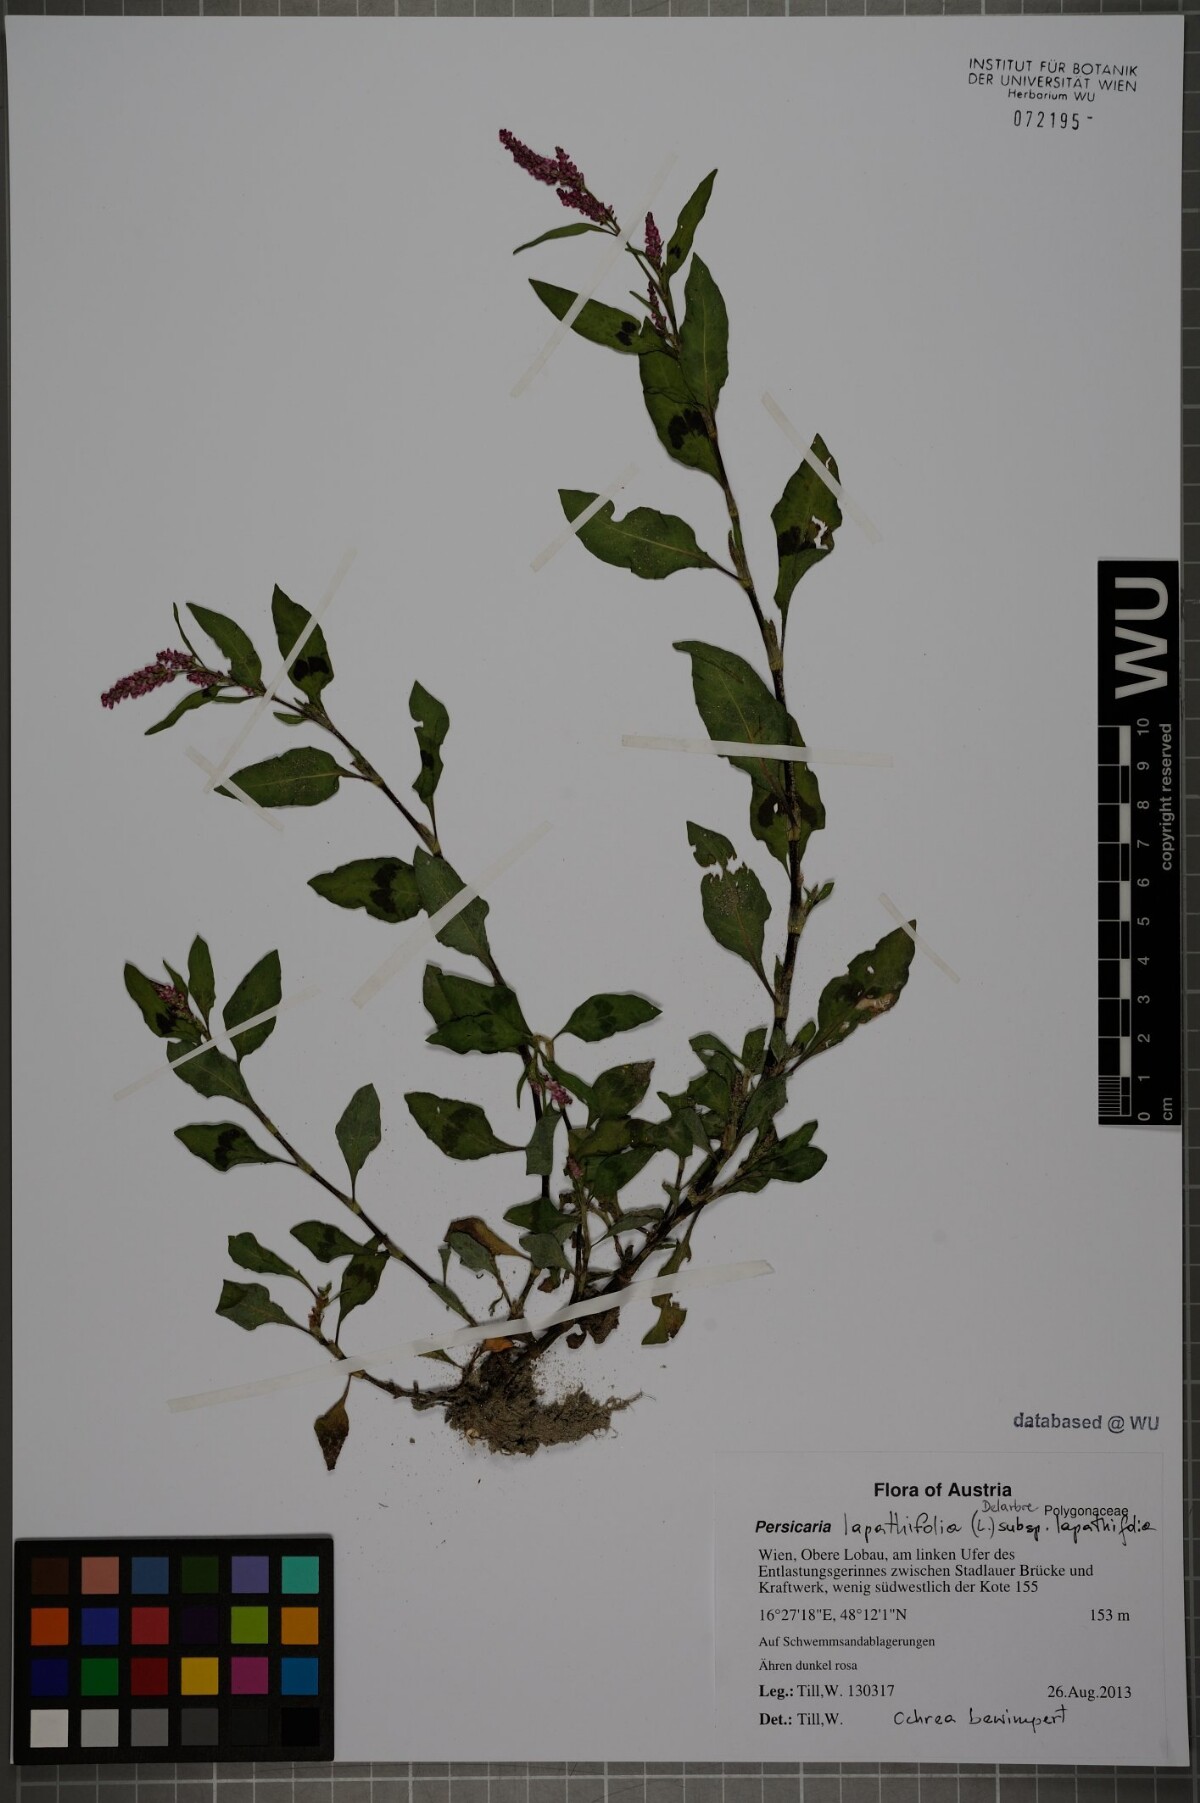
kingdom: Plantae
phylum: Tracheophyta
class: Magnoliopsida
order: Caryophyllales
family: Polygonaceae
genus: Persicaria
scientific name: Persicaria lapathifolia
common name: Curlytop knotweed
